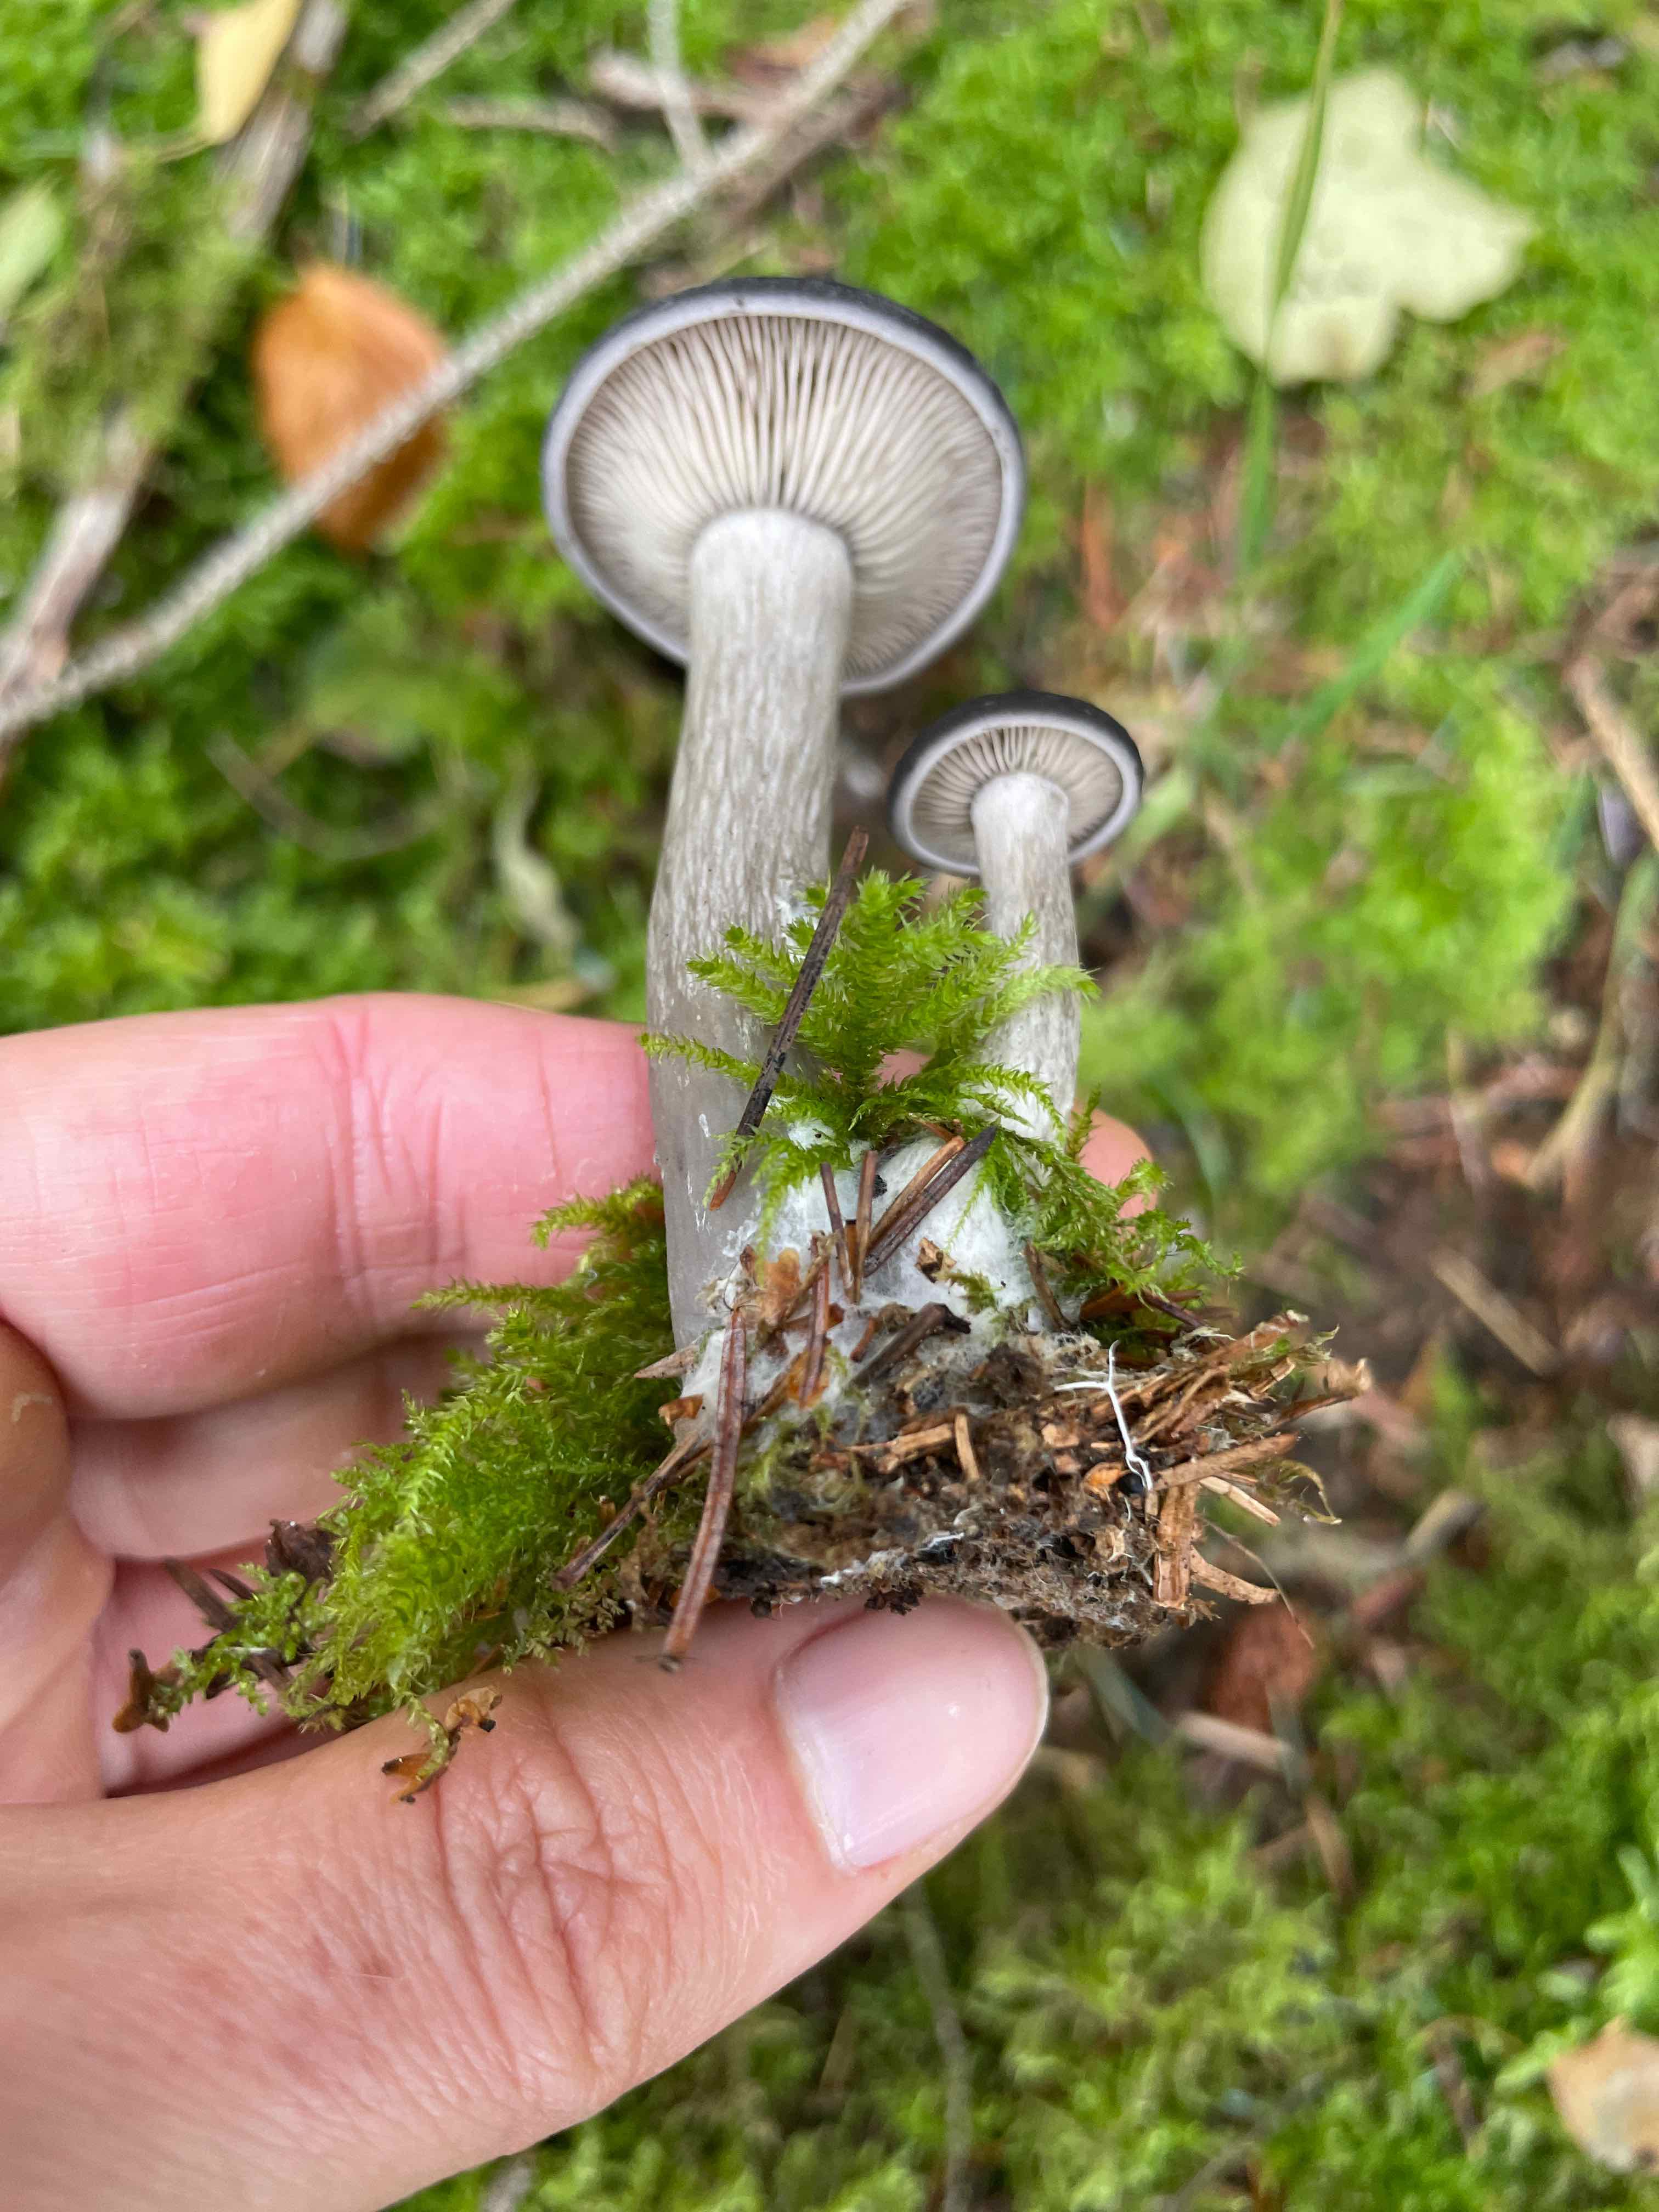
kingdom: Fungi
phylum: Basidiomycota
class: Agaricomycetes
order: Agaricales
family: Pseudoclitocybaceae
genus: Pseudoclitocybe
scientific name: Pseudoclitocybe cyathiformis
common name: almindelig bægertragthat
